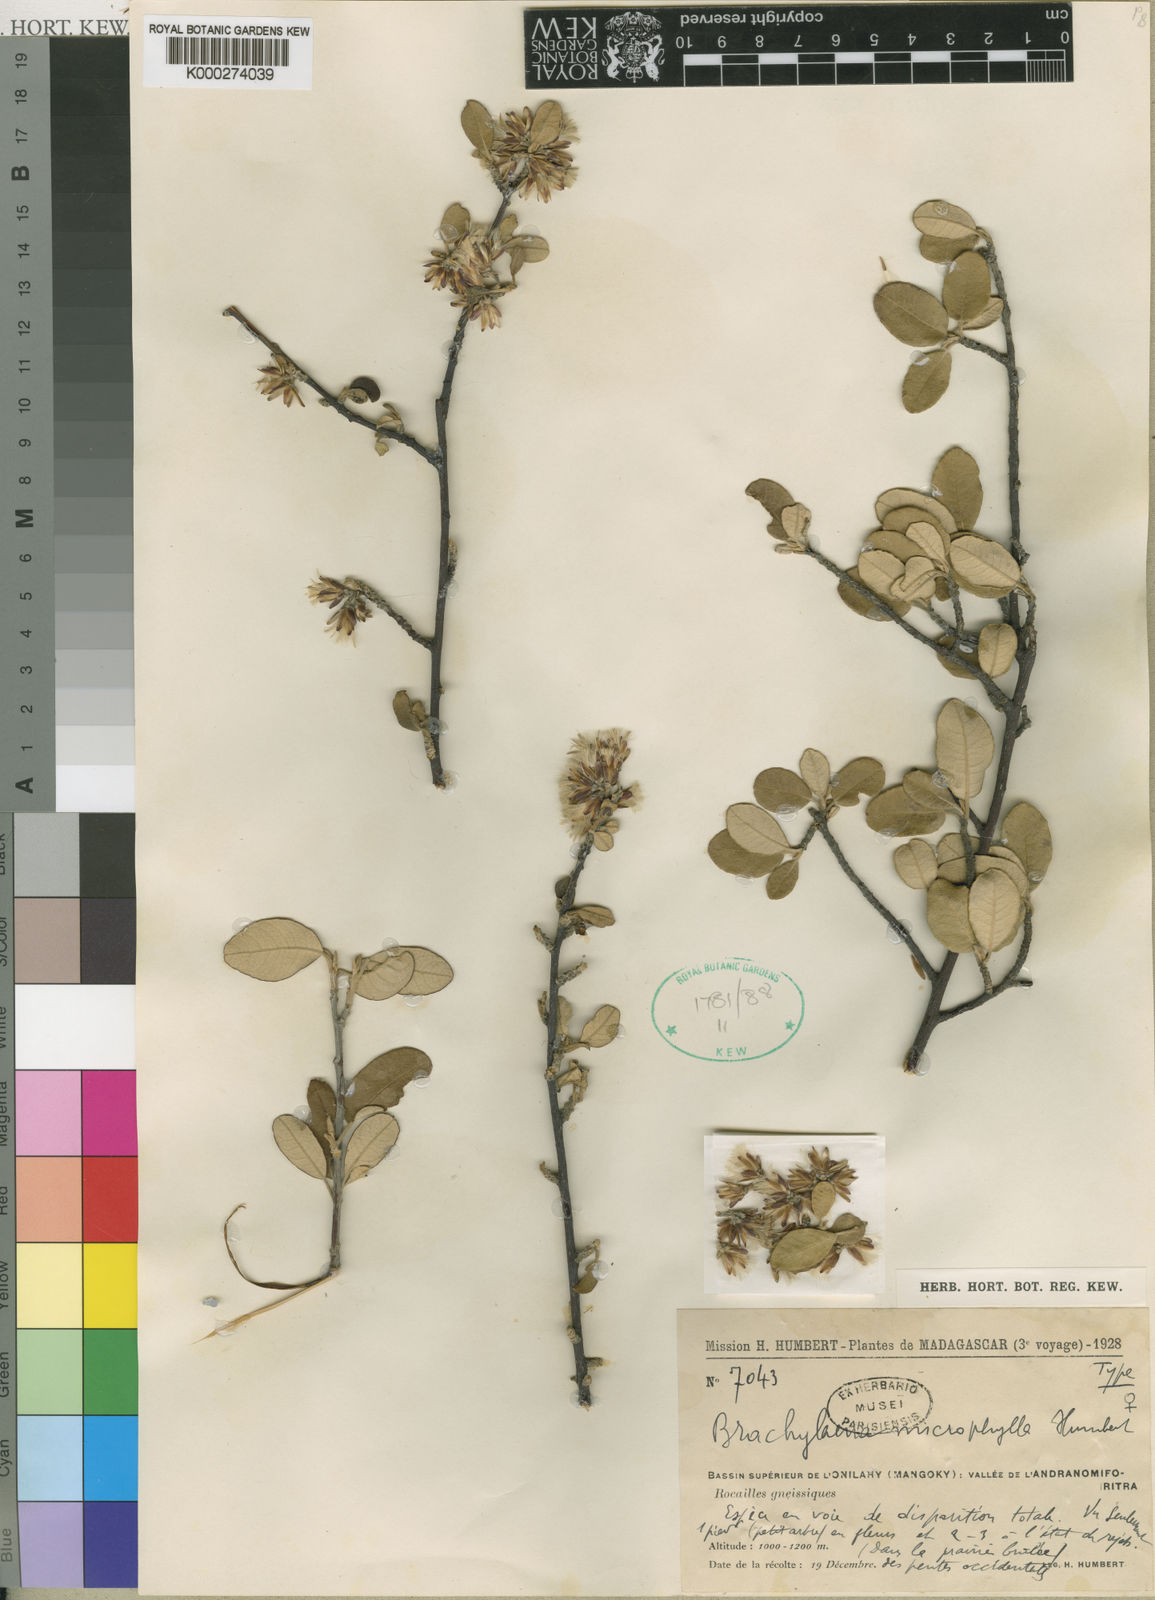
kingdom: Plantae
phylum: Tracheophyta
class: Magnoliopsida
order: Asterales
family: Asteraceae
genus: Brachylaena
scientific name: Brachylaena microphylla
